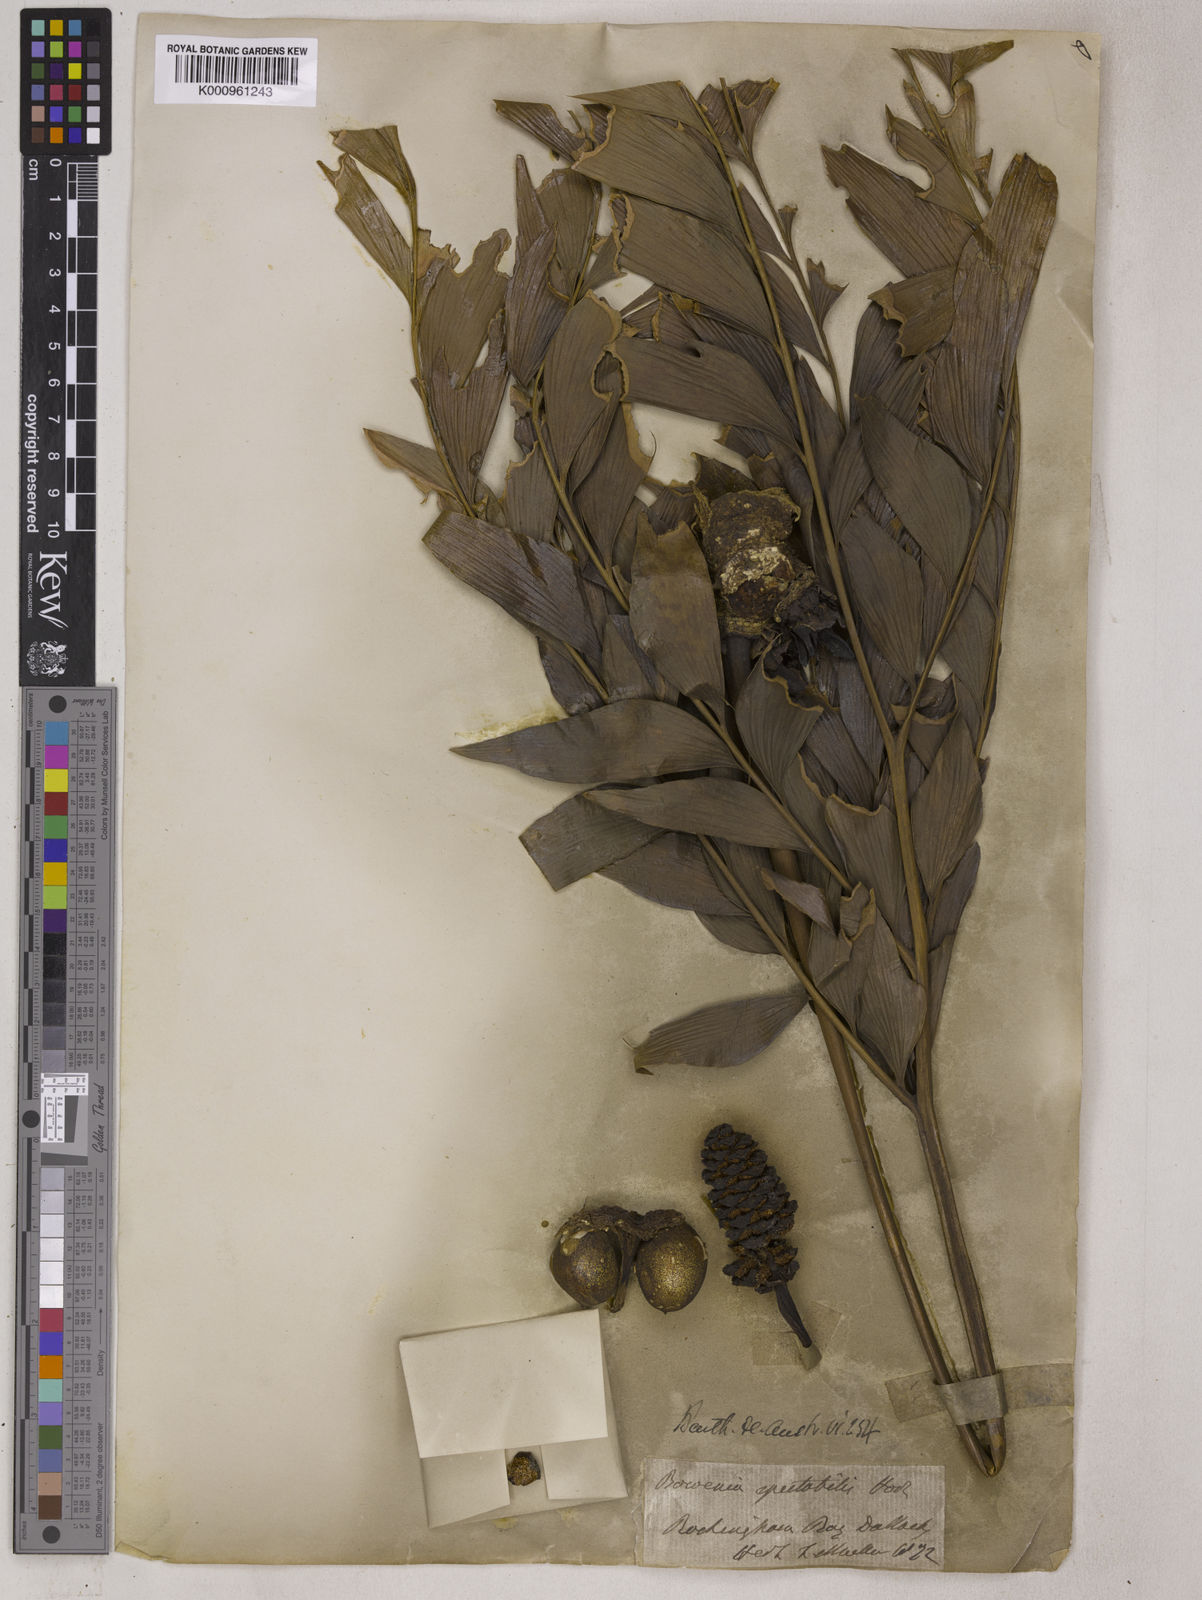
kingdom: Plantae
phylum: Tracheophyta
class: Cycadopsida
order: Cycadales
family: Zamiaceae
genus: Bowenia
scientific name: Bowenia spectabilis
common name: Zamia-fern
